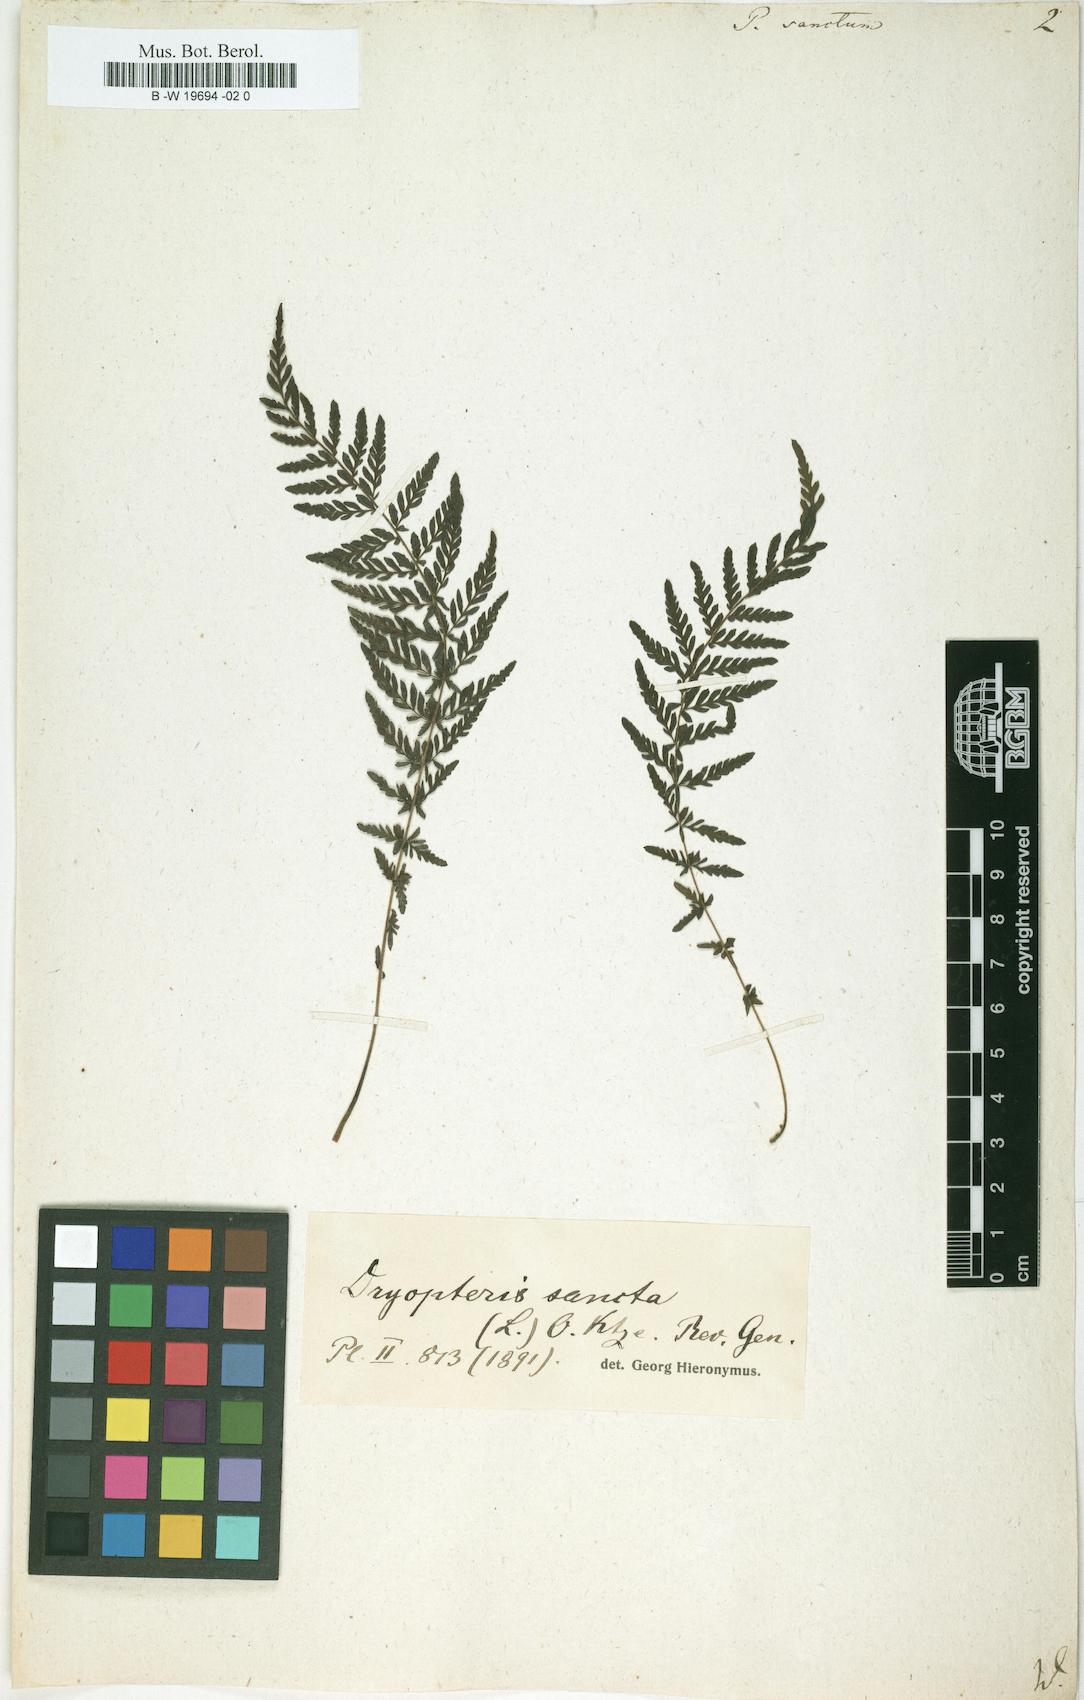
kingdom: Plantae
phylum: Tracheophyta
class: Polypodiopsida
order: Polypodiales
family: Thelypteridaceae
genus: Amauropelta
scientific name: Amauropelta cruciata
